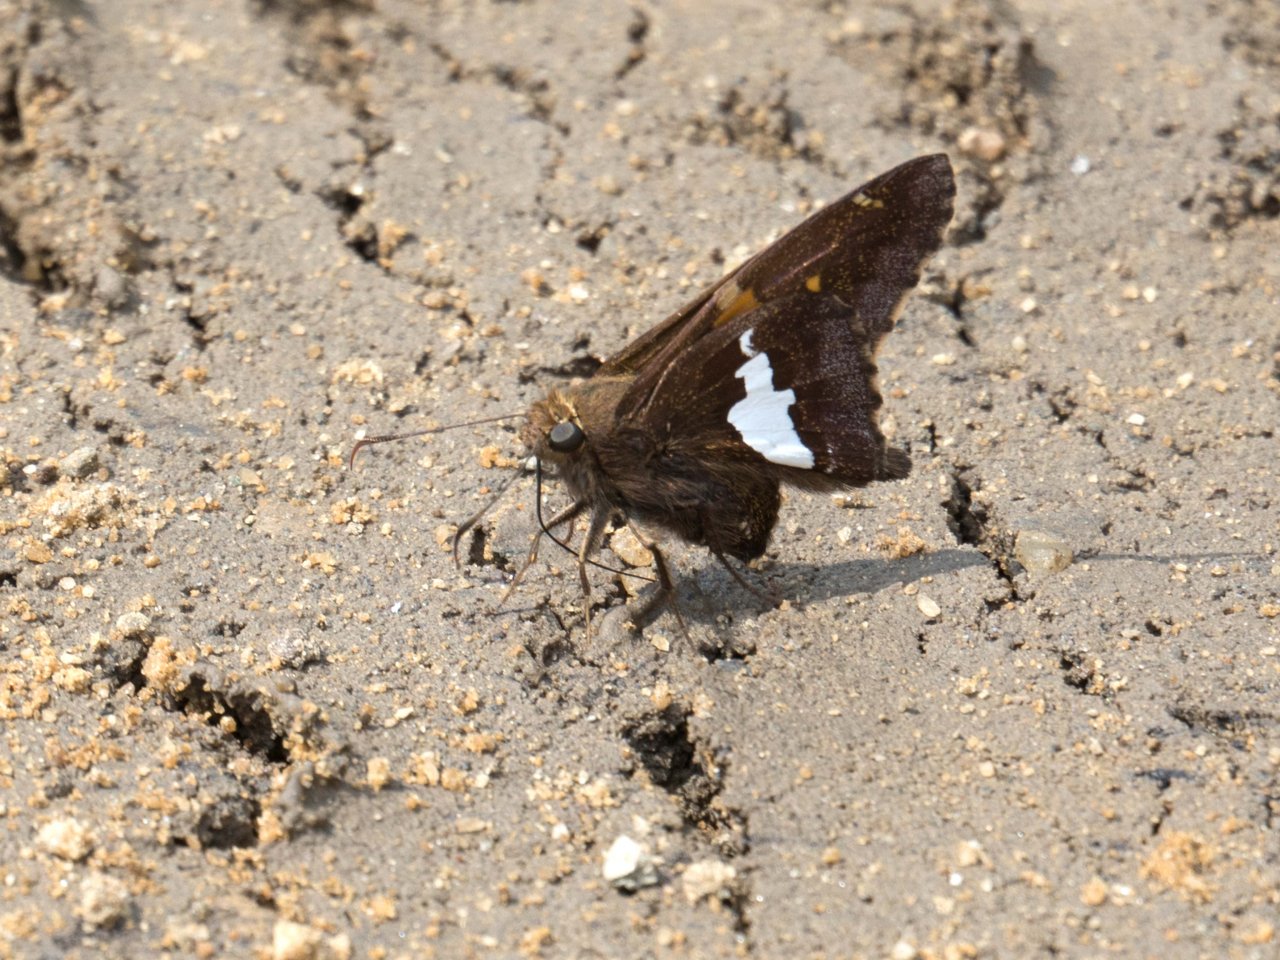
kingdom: Animalia
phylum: Arthropoda
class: Insecta
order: Lepidoptera
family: Hesperiidae
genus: Epargyreus
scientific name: Epargyreus clarus
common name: Silver-spotted Skipper
